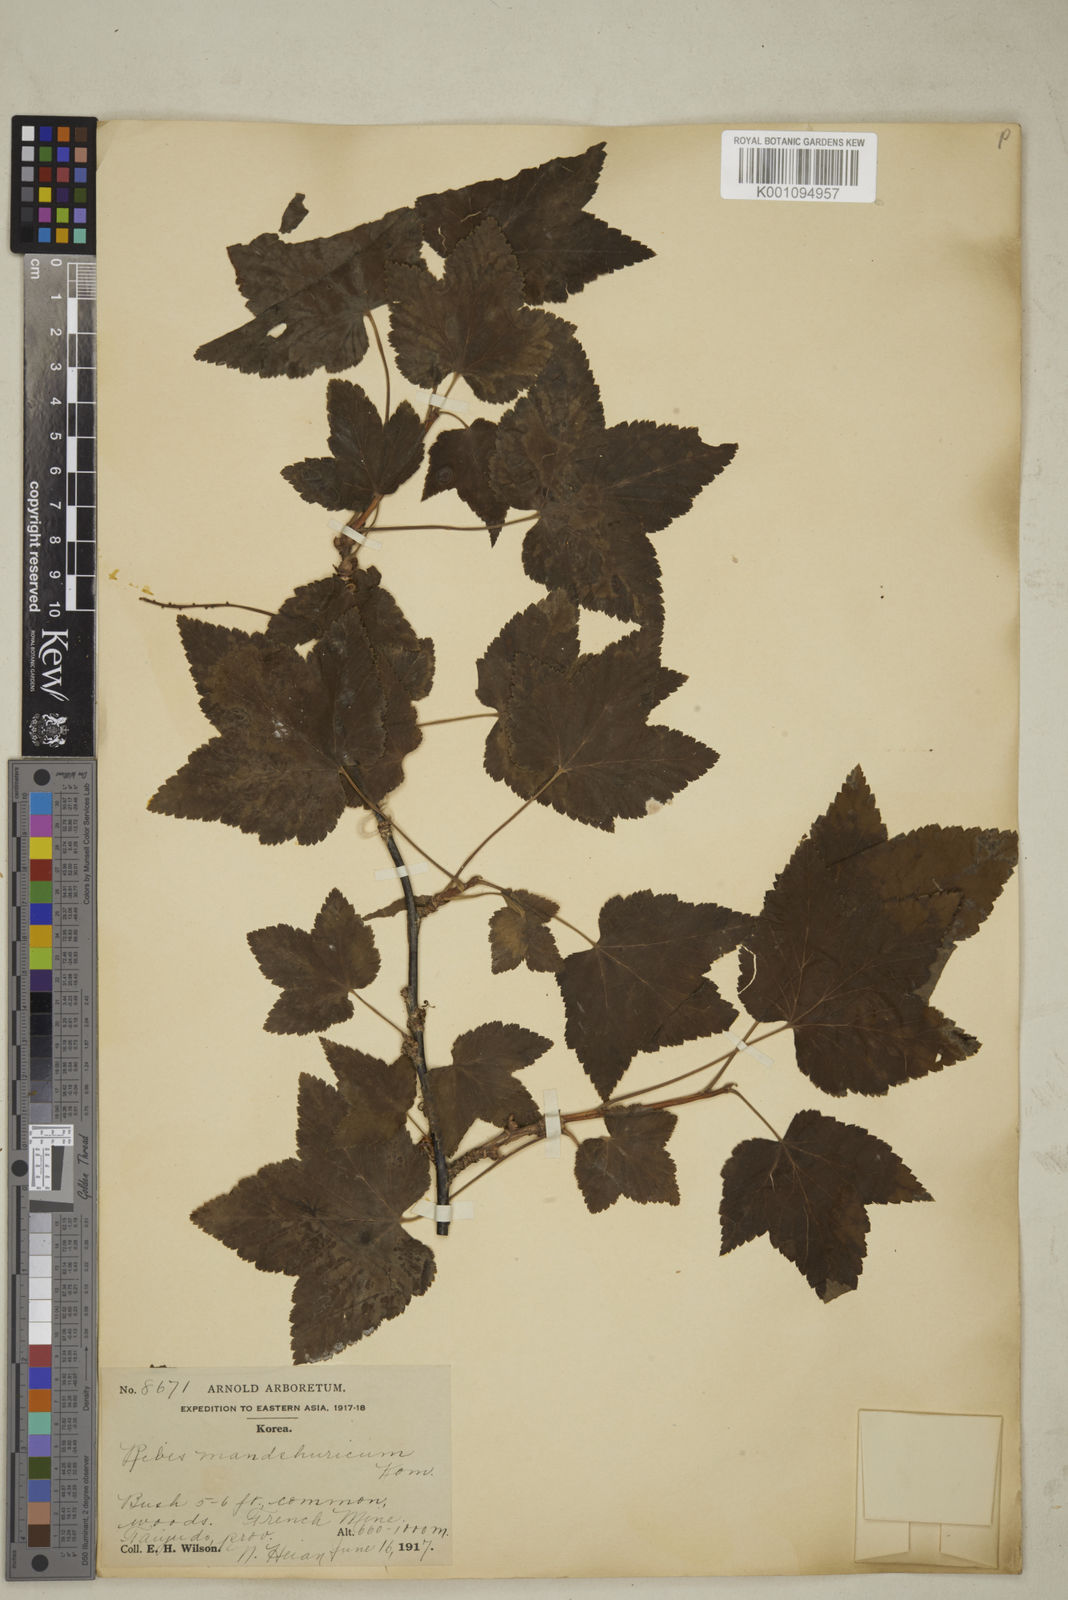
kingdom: Plantae
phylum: Tracheophyta
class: Magnoliopsida
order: Saxifragales
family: Grossulariaceae
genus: Ribes
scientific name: Ribes
